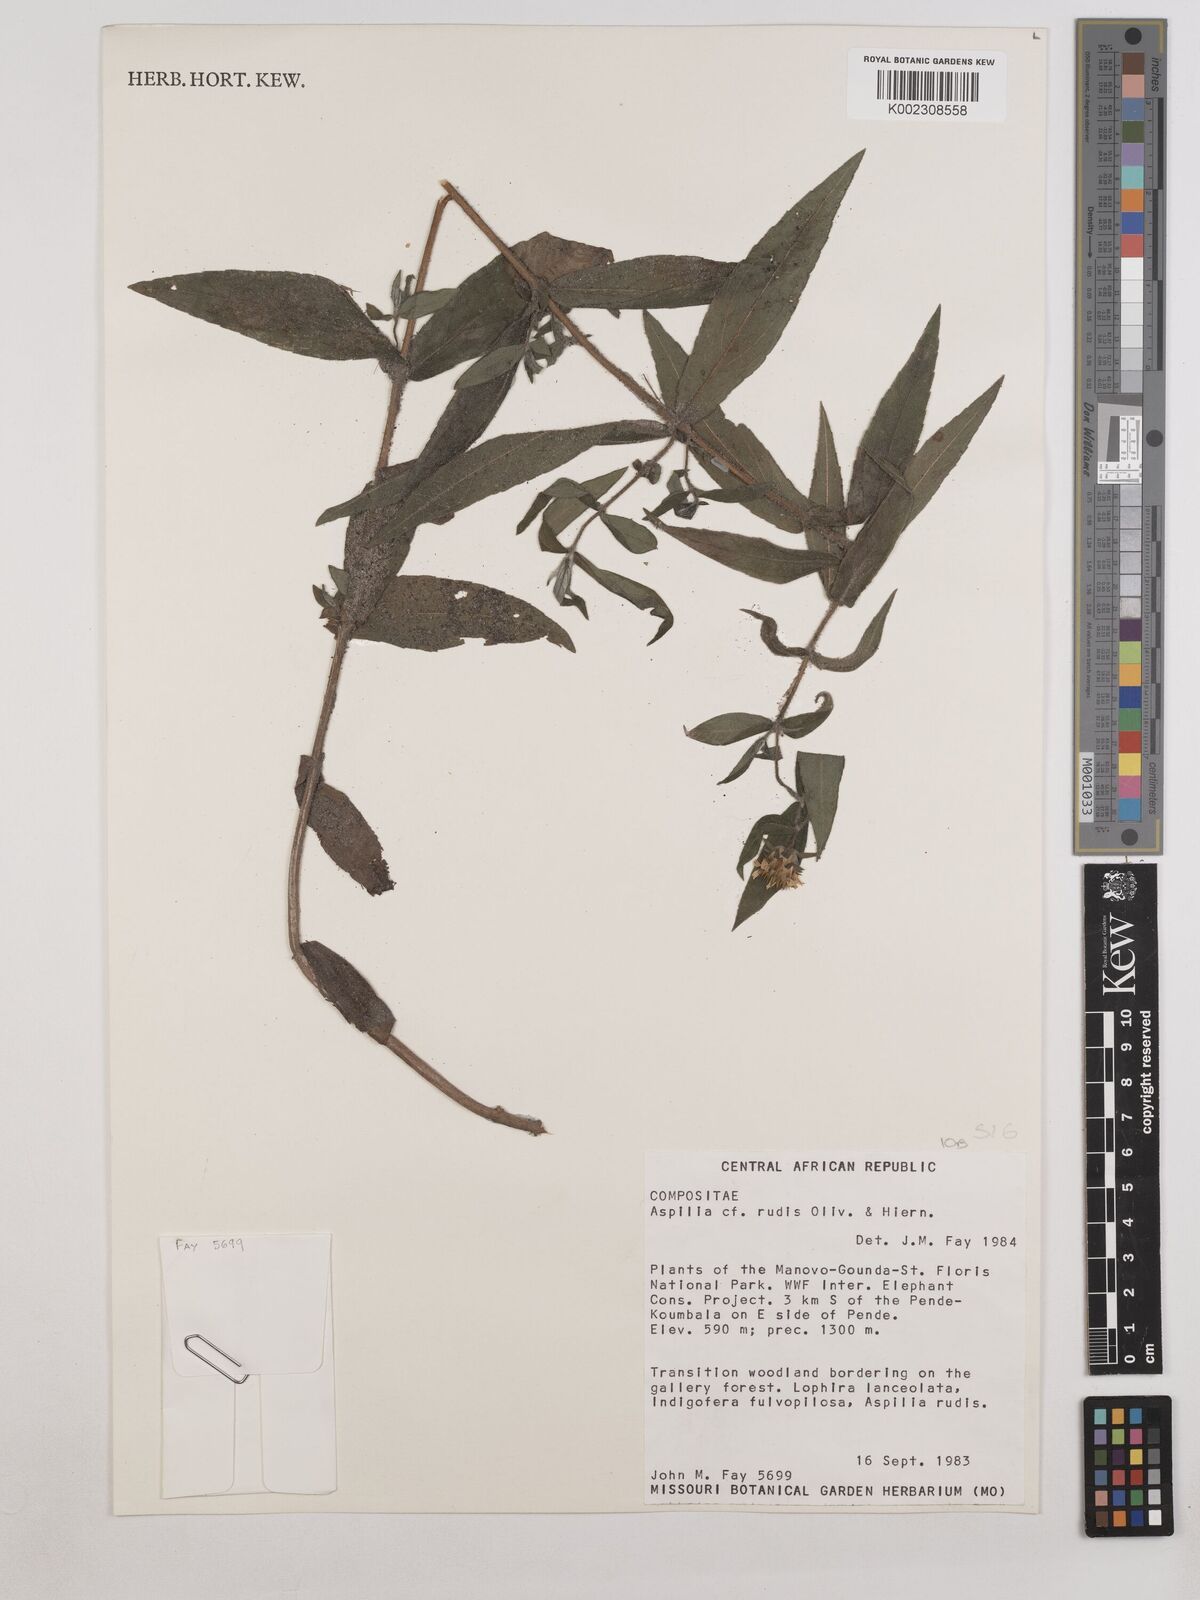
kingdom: Plantae
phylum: Tracheophyta
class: Magnoliopsida
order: Asterales
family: Asteraceae
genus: Achillea
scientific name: Achillea
